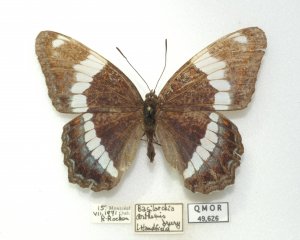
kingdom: Animalia
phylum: Arthropoda
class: Insecta
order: Lepidoptera
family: Nymphalidae
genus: Limenitis
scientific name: Limenitis arthemis
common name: Red-spotted Admiral
